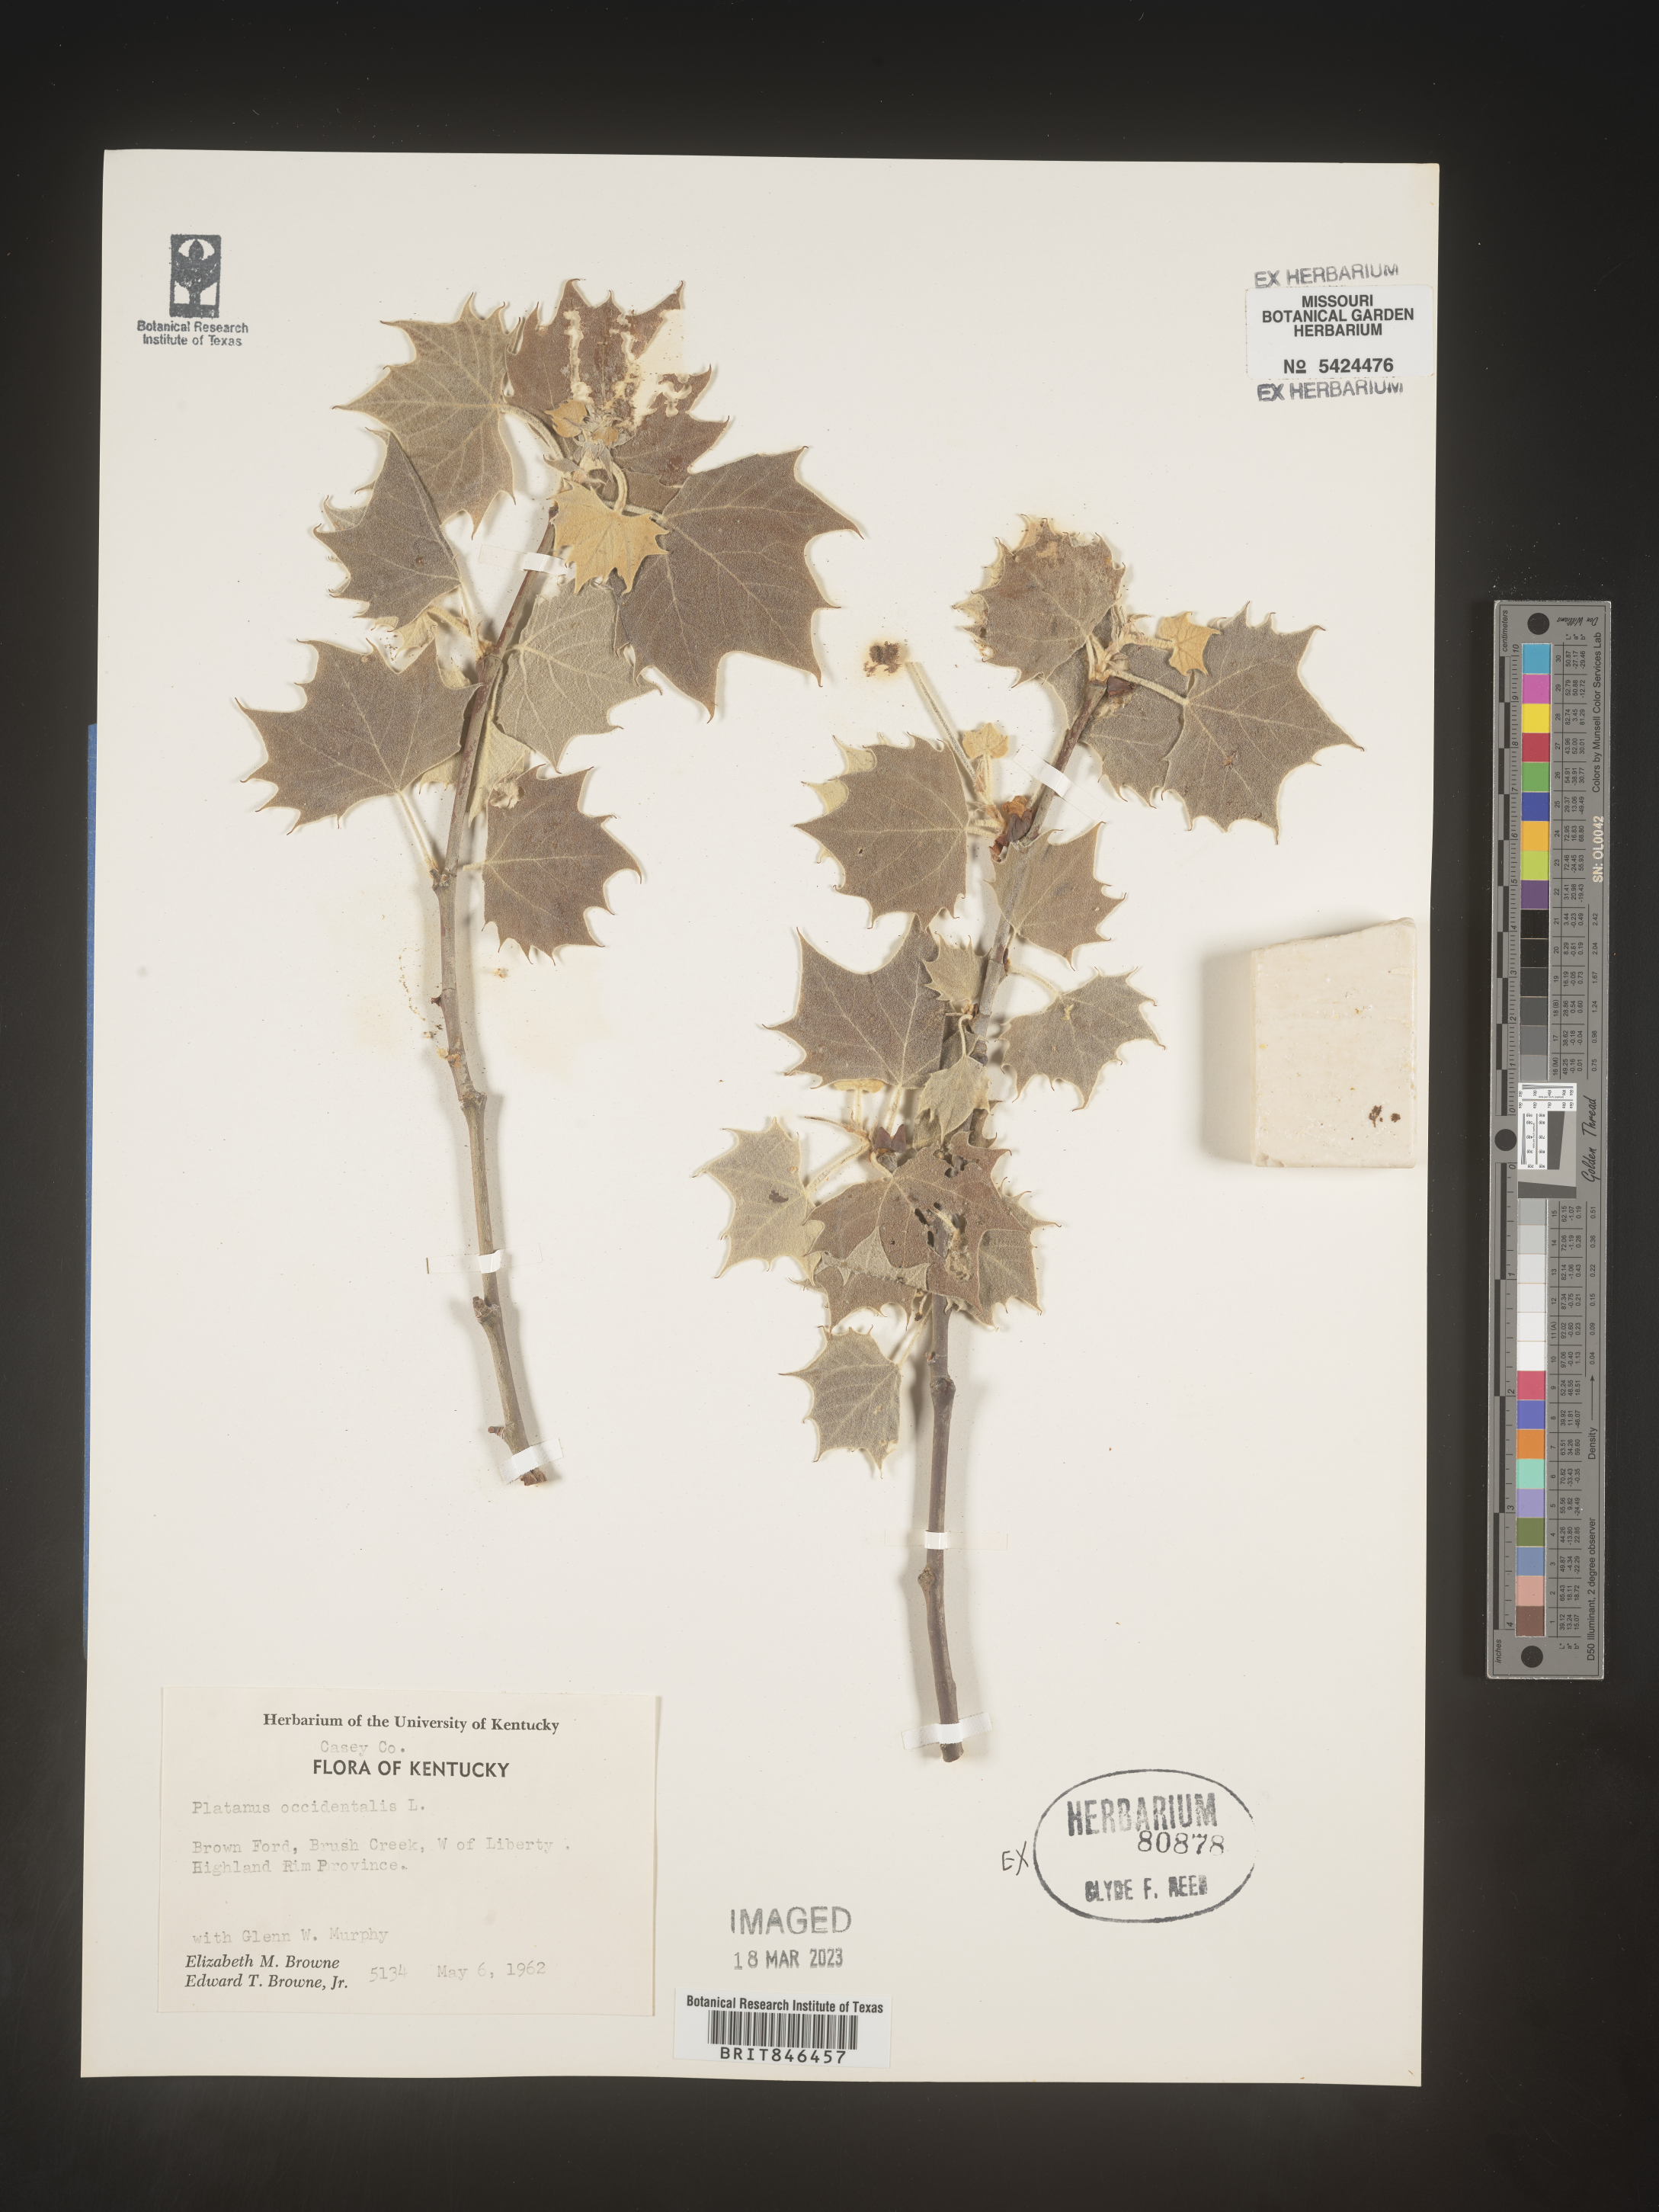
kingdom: Plantae
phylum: Tracheophyta
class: Magnoliopsida
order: Proteales
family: Platanaceae
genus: Platanus
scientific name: Platanus occidentalis
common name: American sycamore
